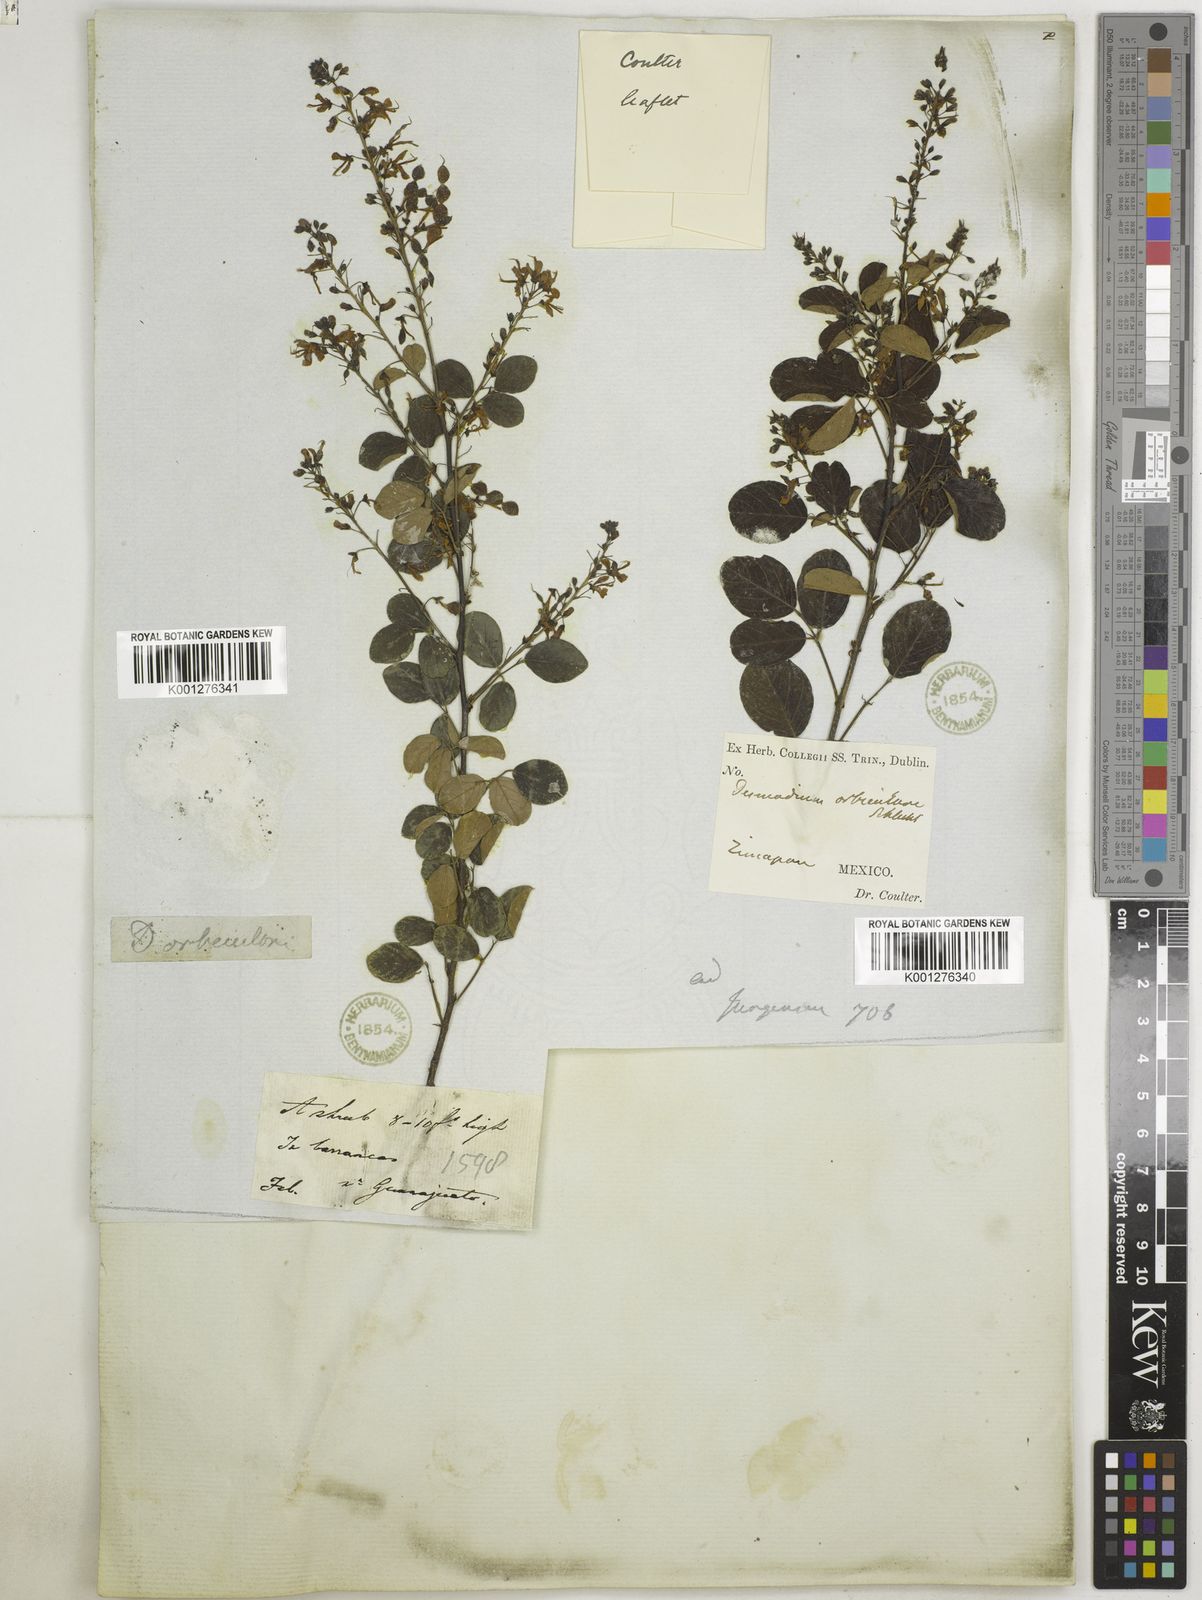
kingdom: Plantae
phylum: Tracheophyta
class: Magnoliopsida
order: Fabales
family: Fabaceae
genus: Desmodium
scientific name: Desmodium
